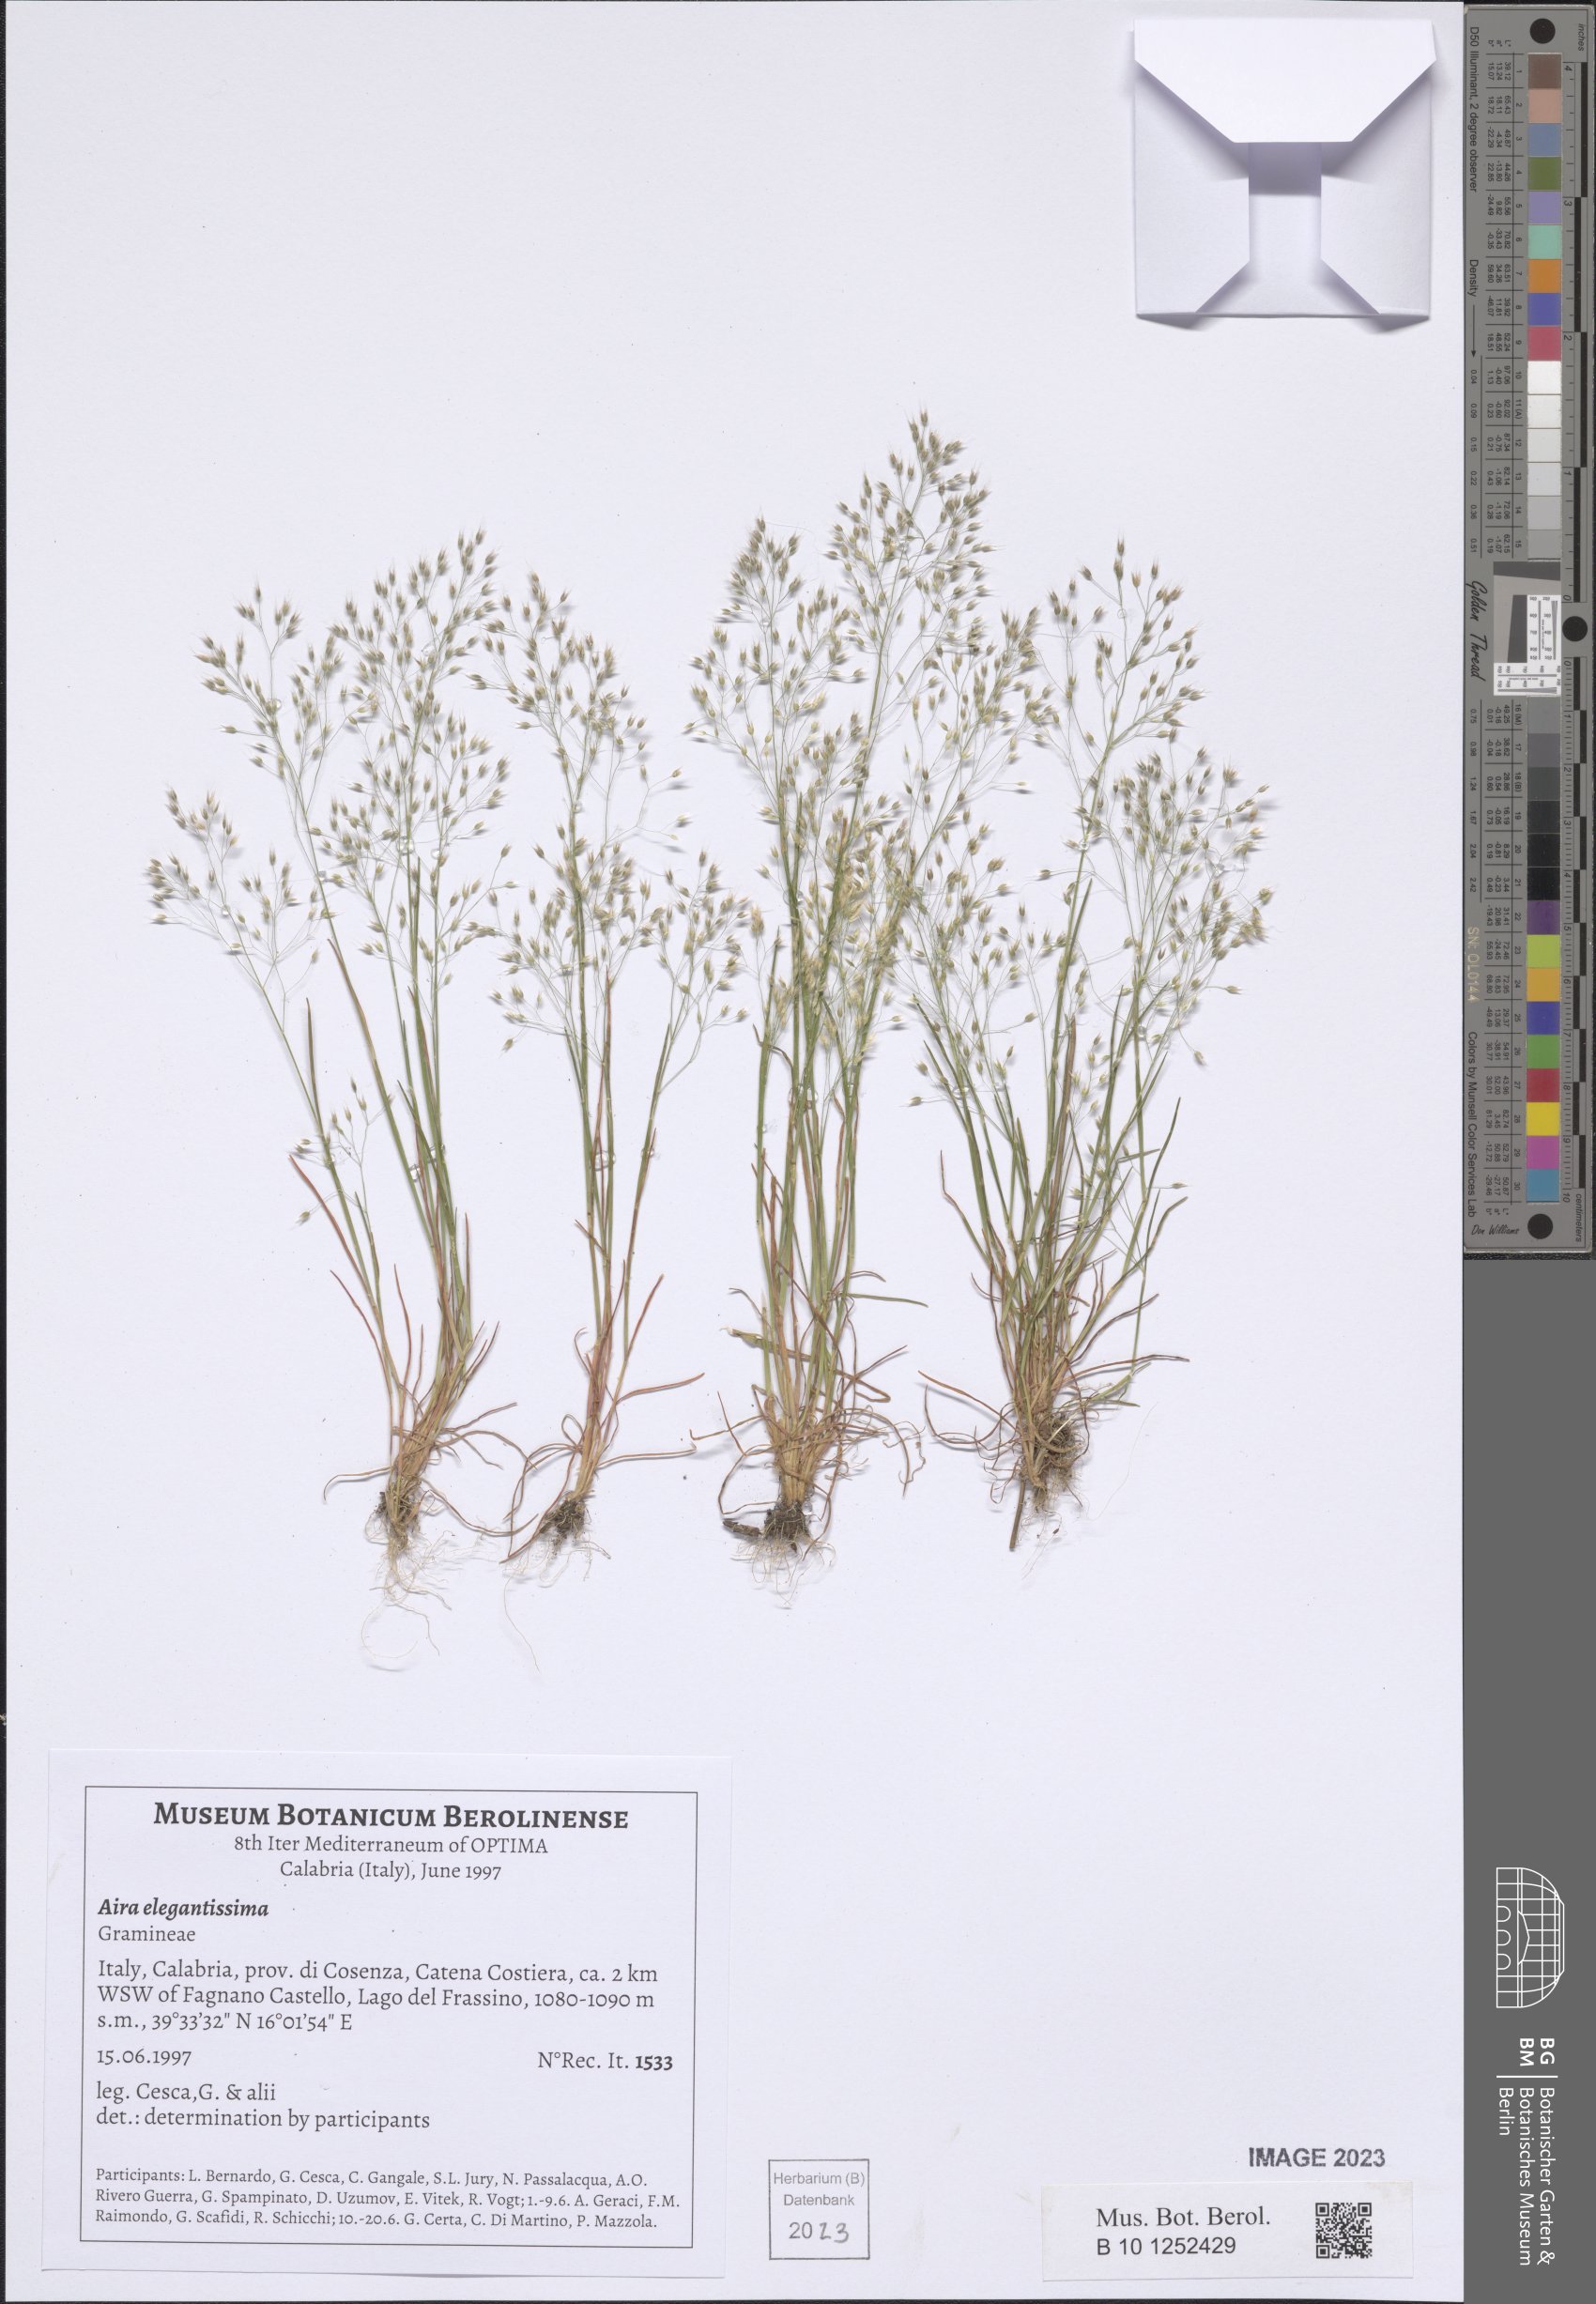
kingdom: Plantae
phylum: Tracheophyta
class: Liliopsida
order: Poales
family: Poaceae
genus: Aira
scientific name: Aira elegans
